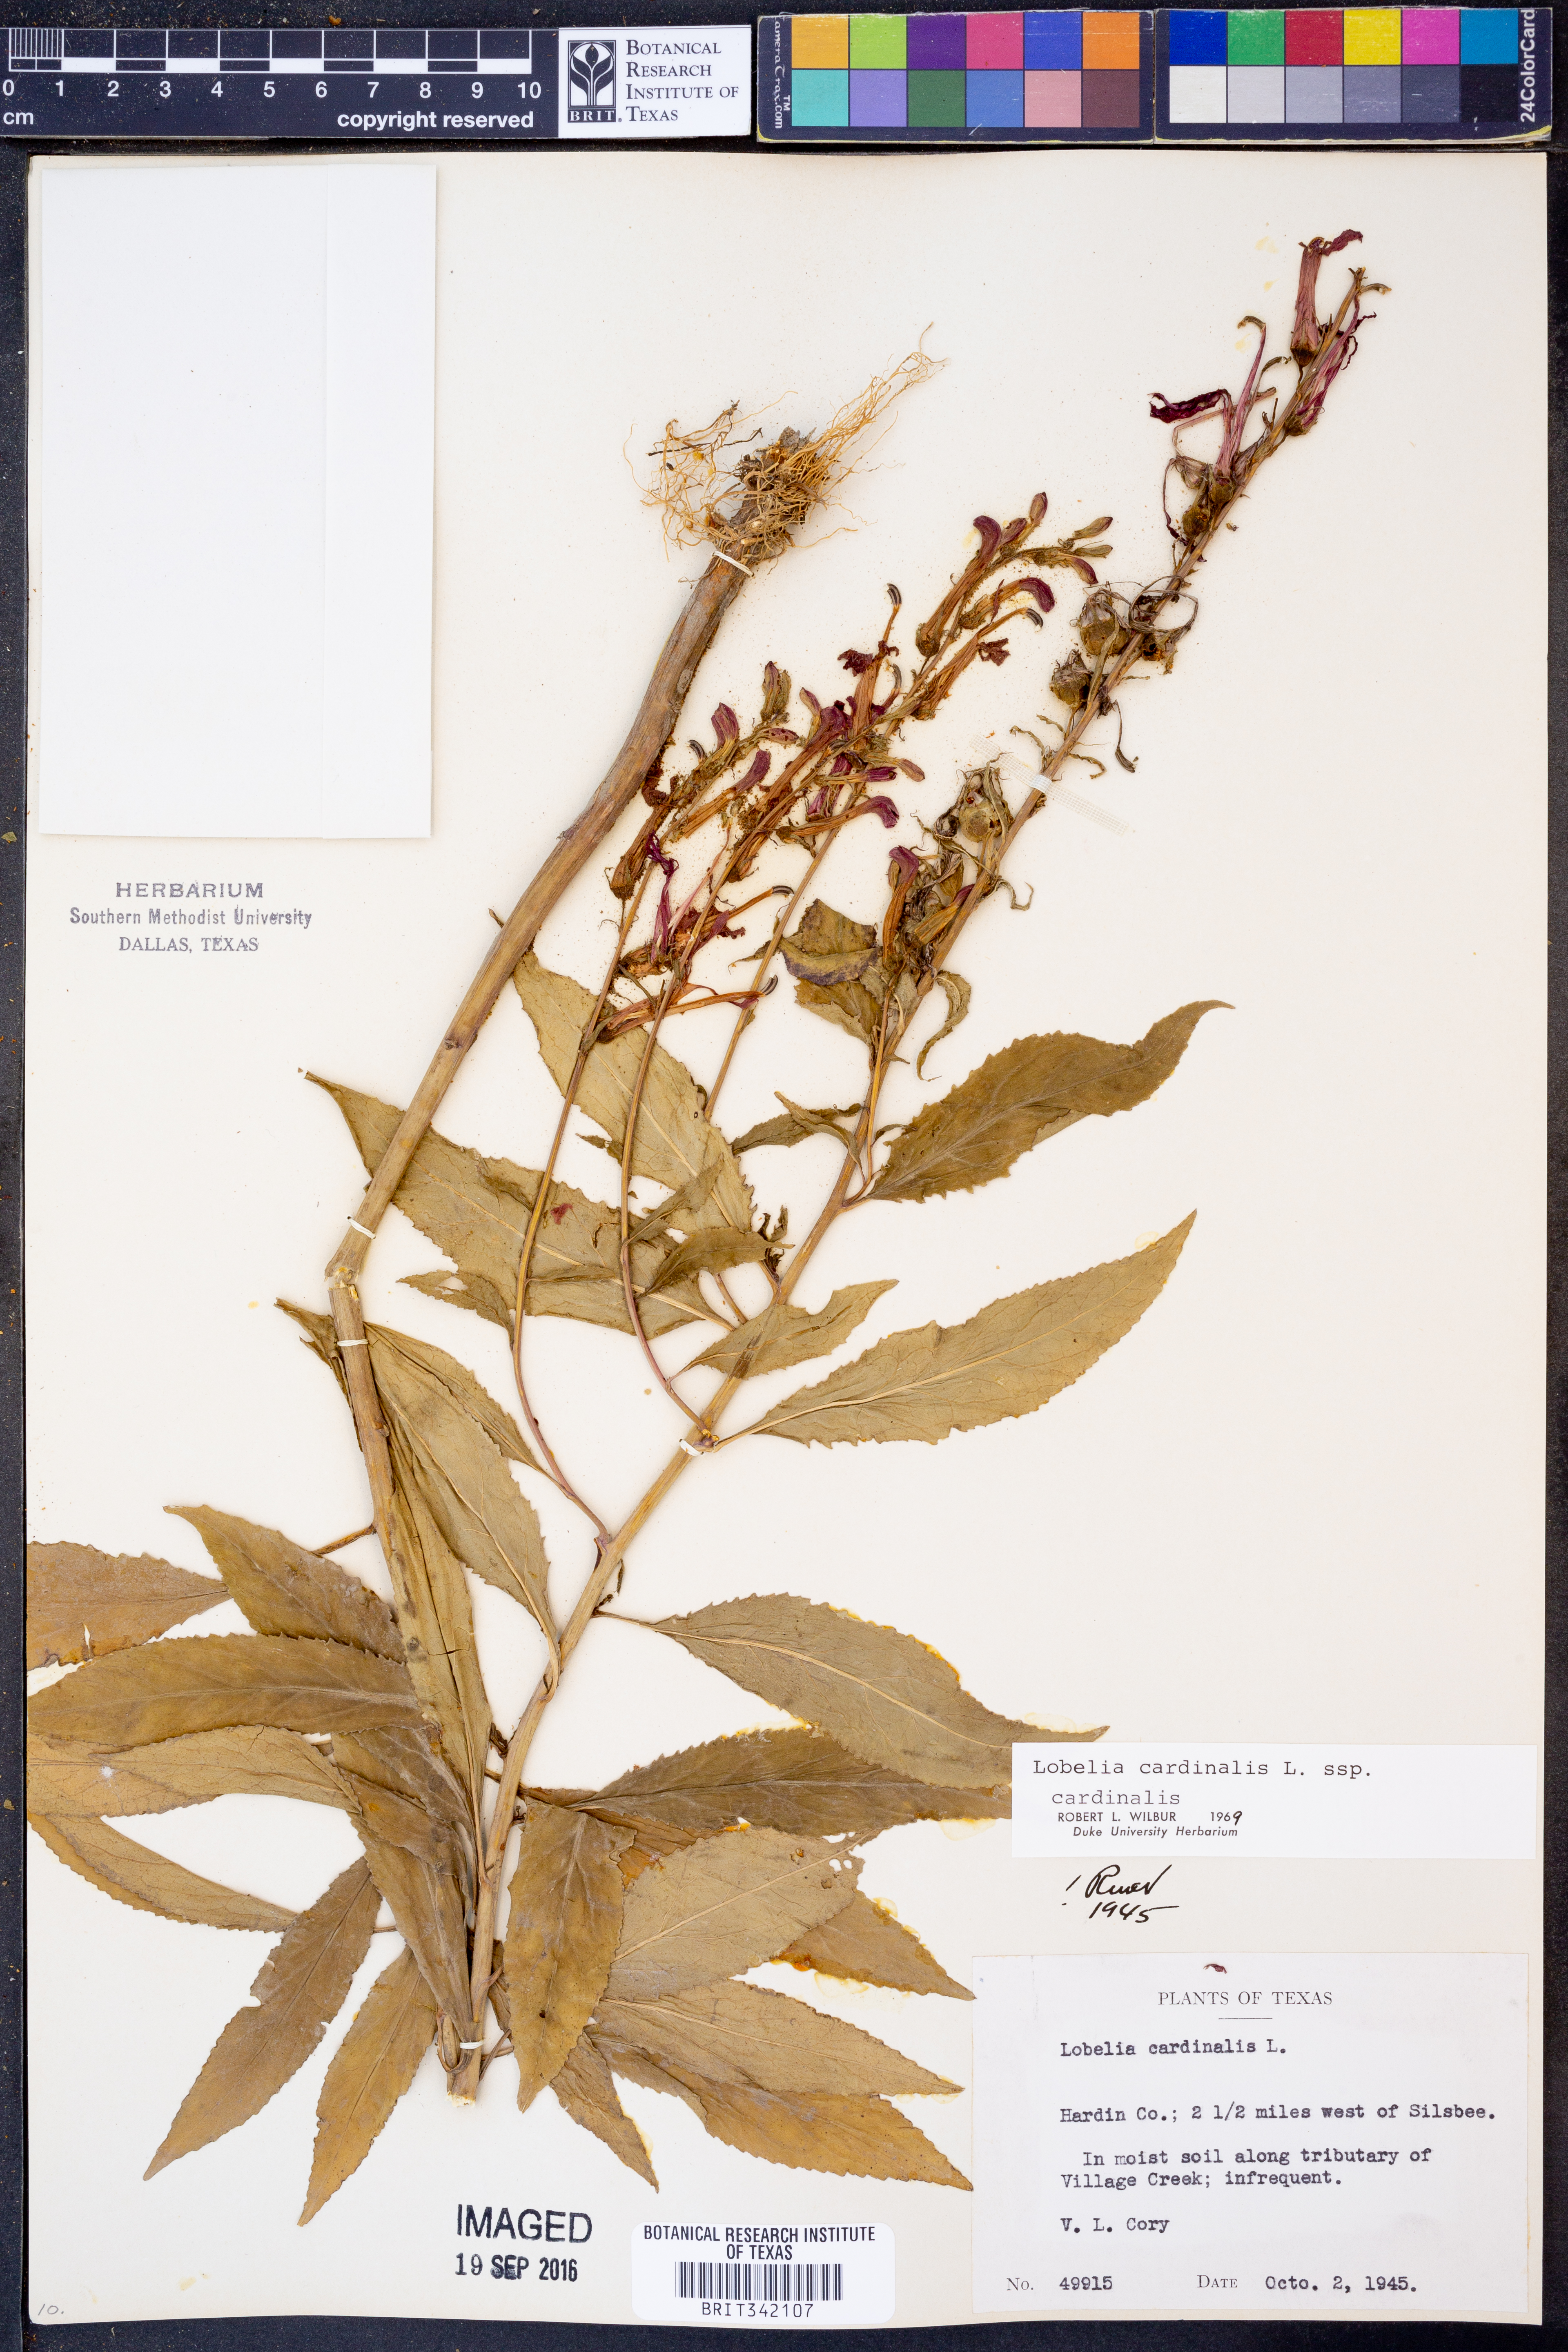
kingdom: Plantae
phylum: Tracheophyta
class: Magnoliopsida
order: Asterales
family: Campanulaceae
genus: Lobelia
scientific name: Lobelia cardinalis
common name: Cardinal flower
